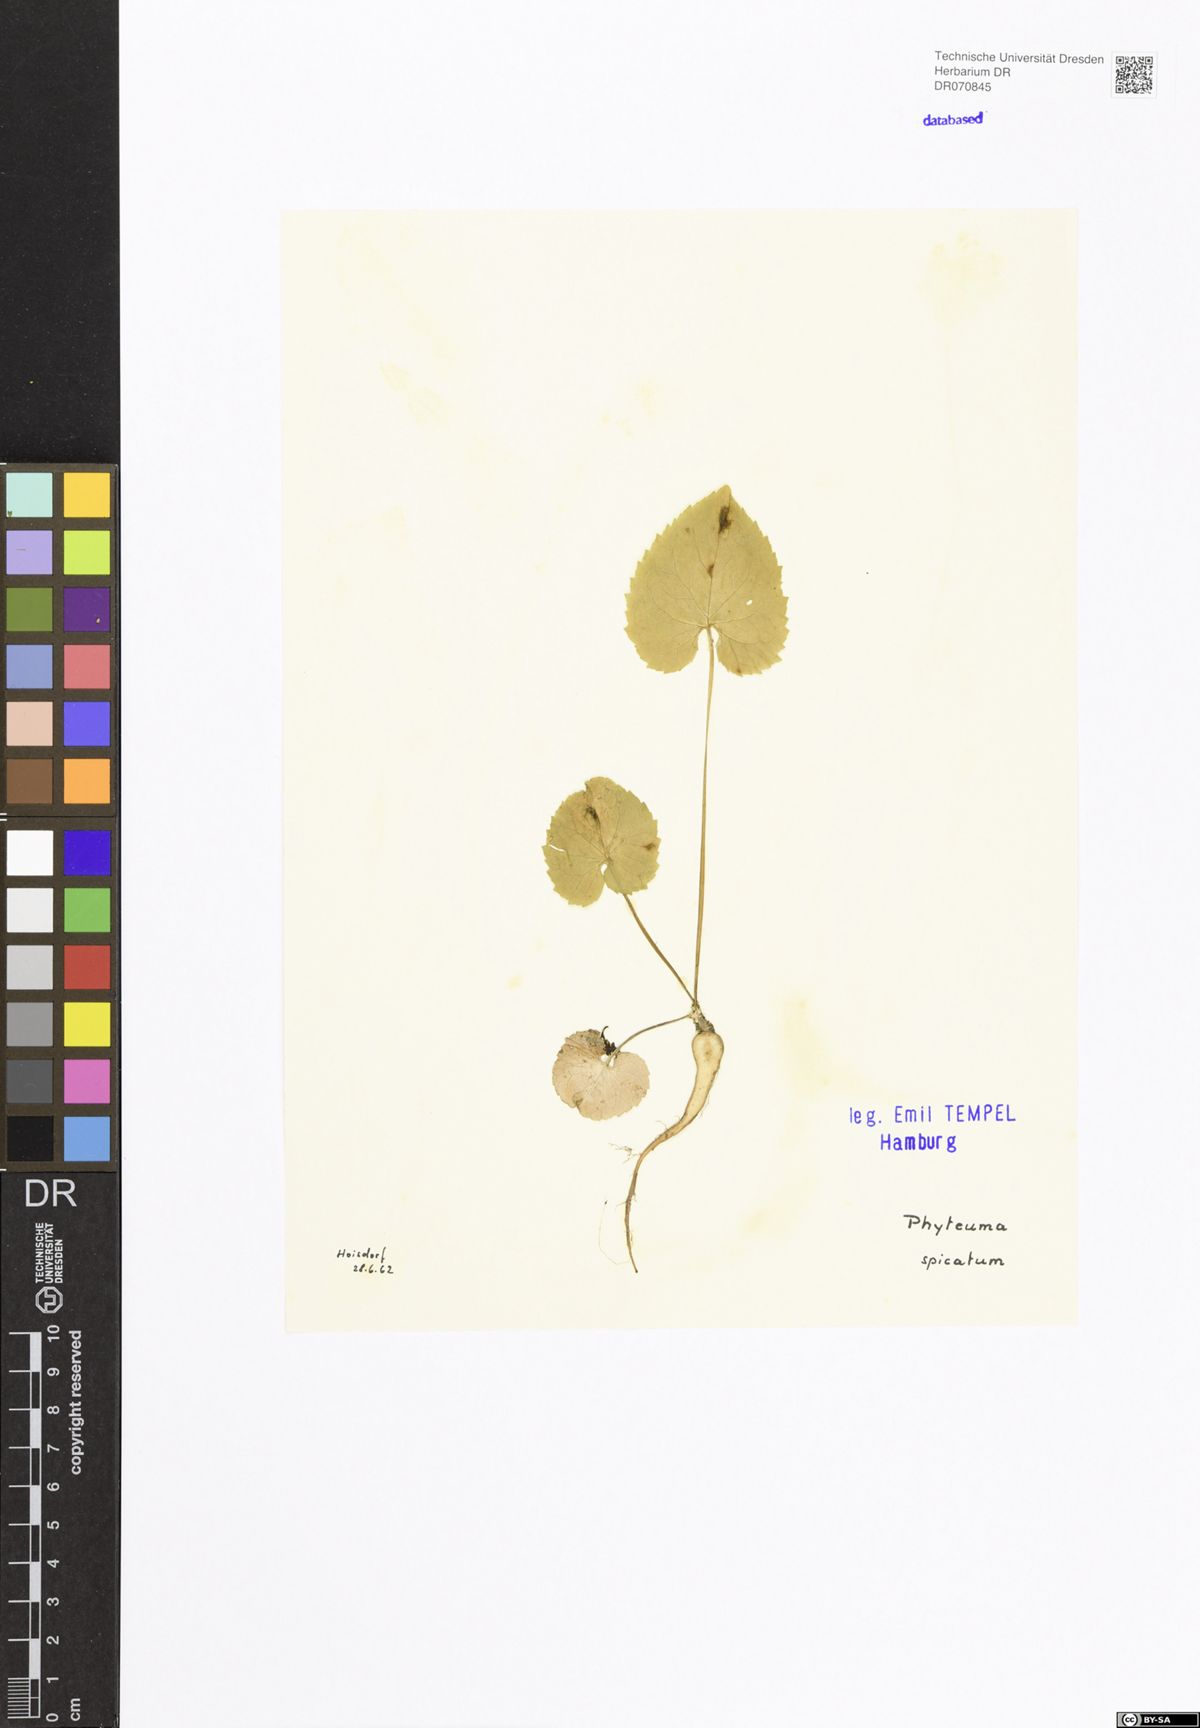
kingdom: Plantae
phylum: Tracheophyta
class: Magnoliopsida
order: Asterales
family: Campanulaceae
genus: Phyteuma
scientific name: Phyteuma spicatum
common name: Spiked rampion
